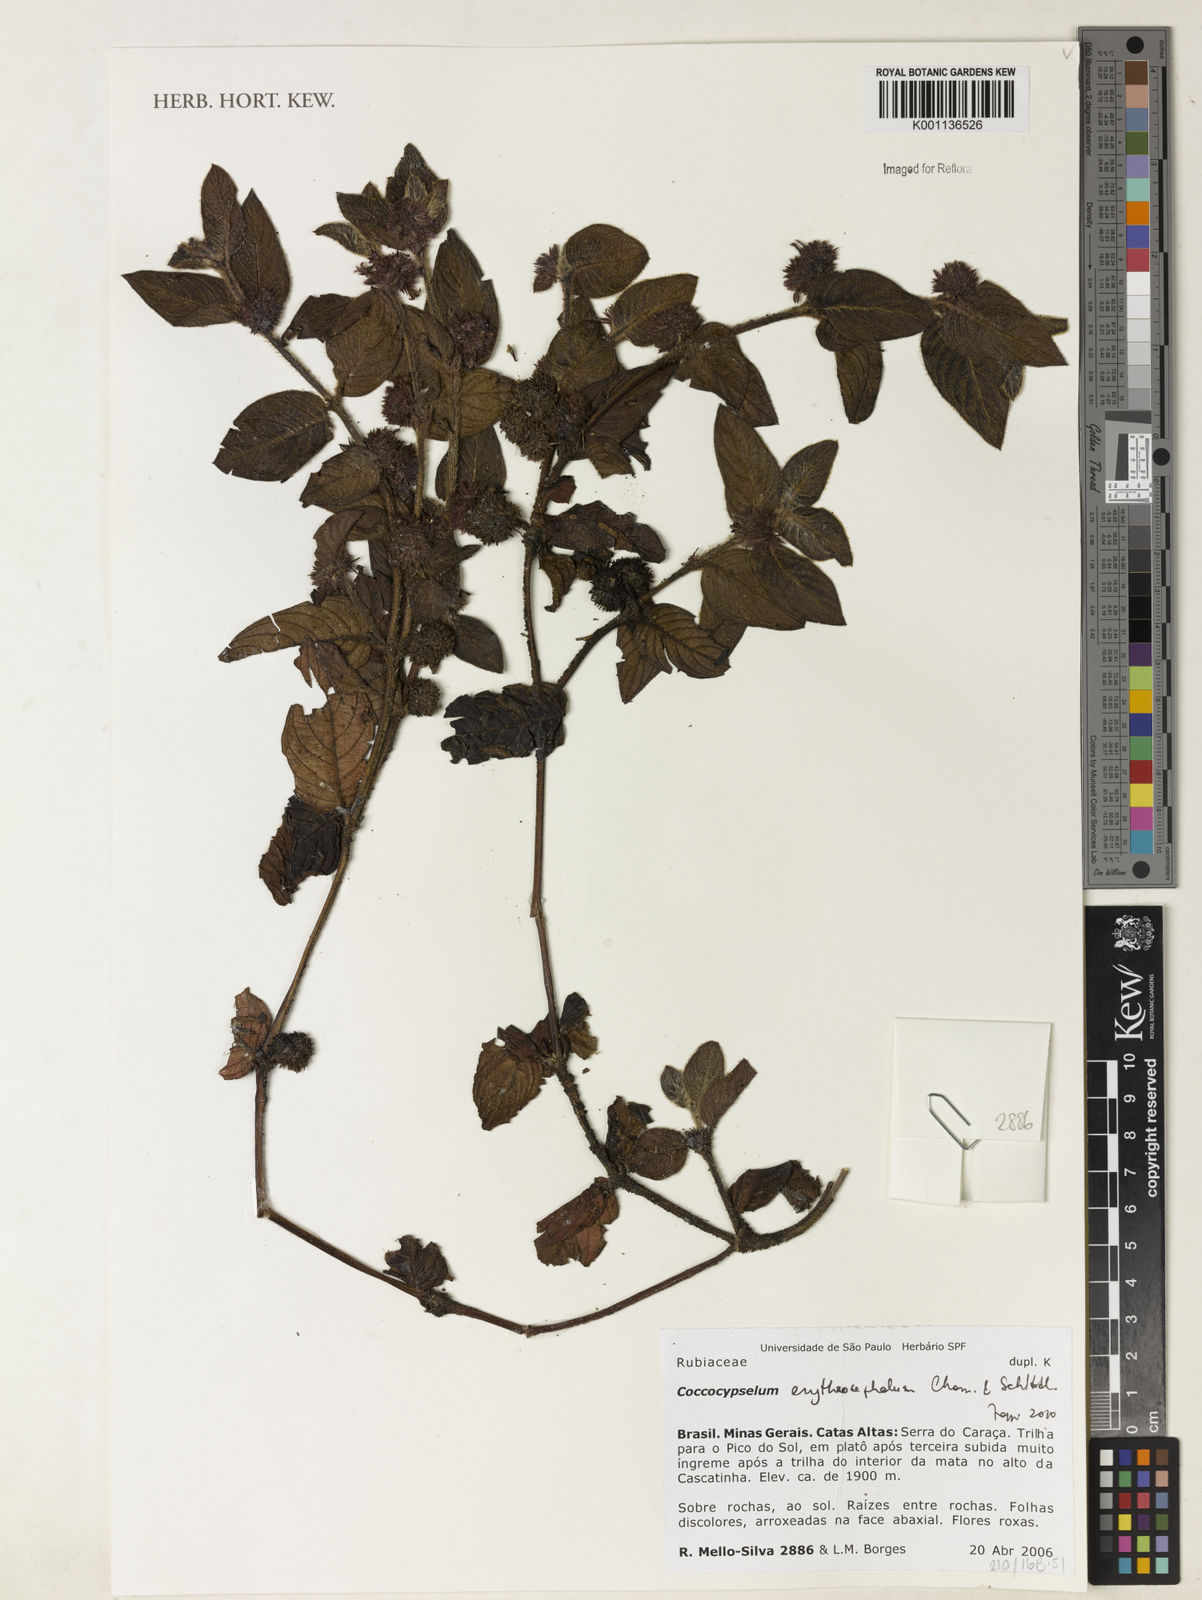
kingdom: Plantae
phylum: Tracheophyta
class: Magnoliopsida
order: Gentianales
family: Rubiaceae
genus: Coccocypselum
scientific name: Coccocypselum erythrocephalum
